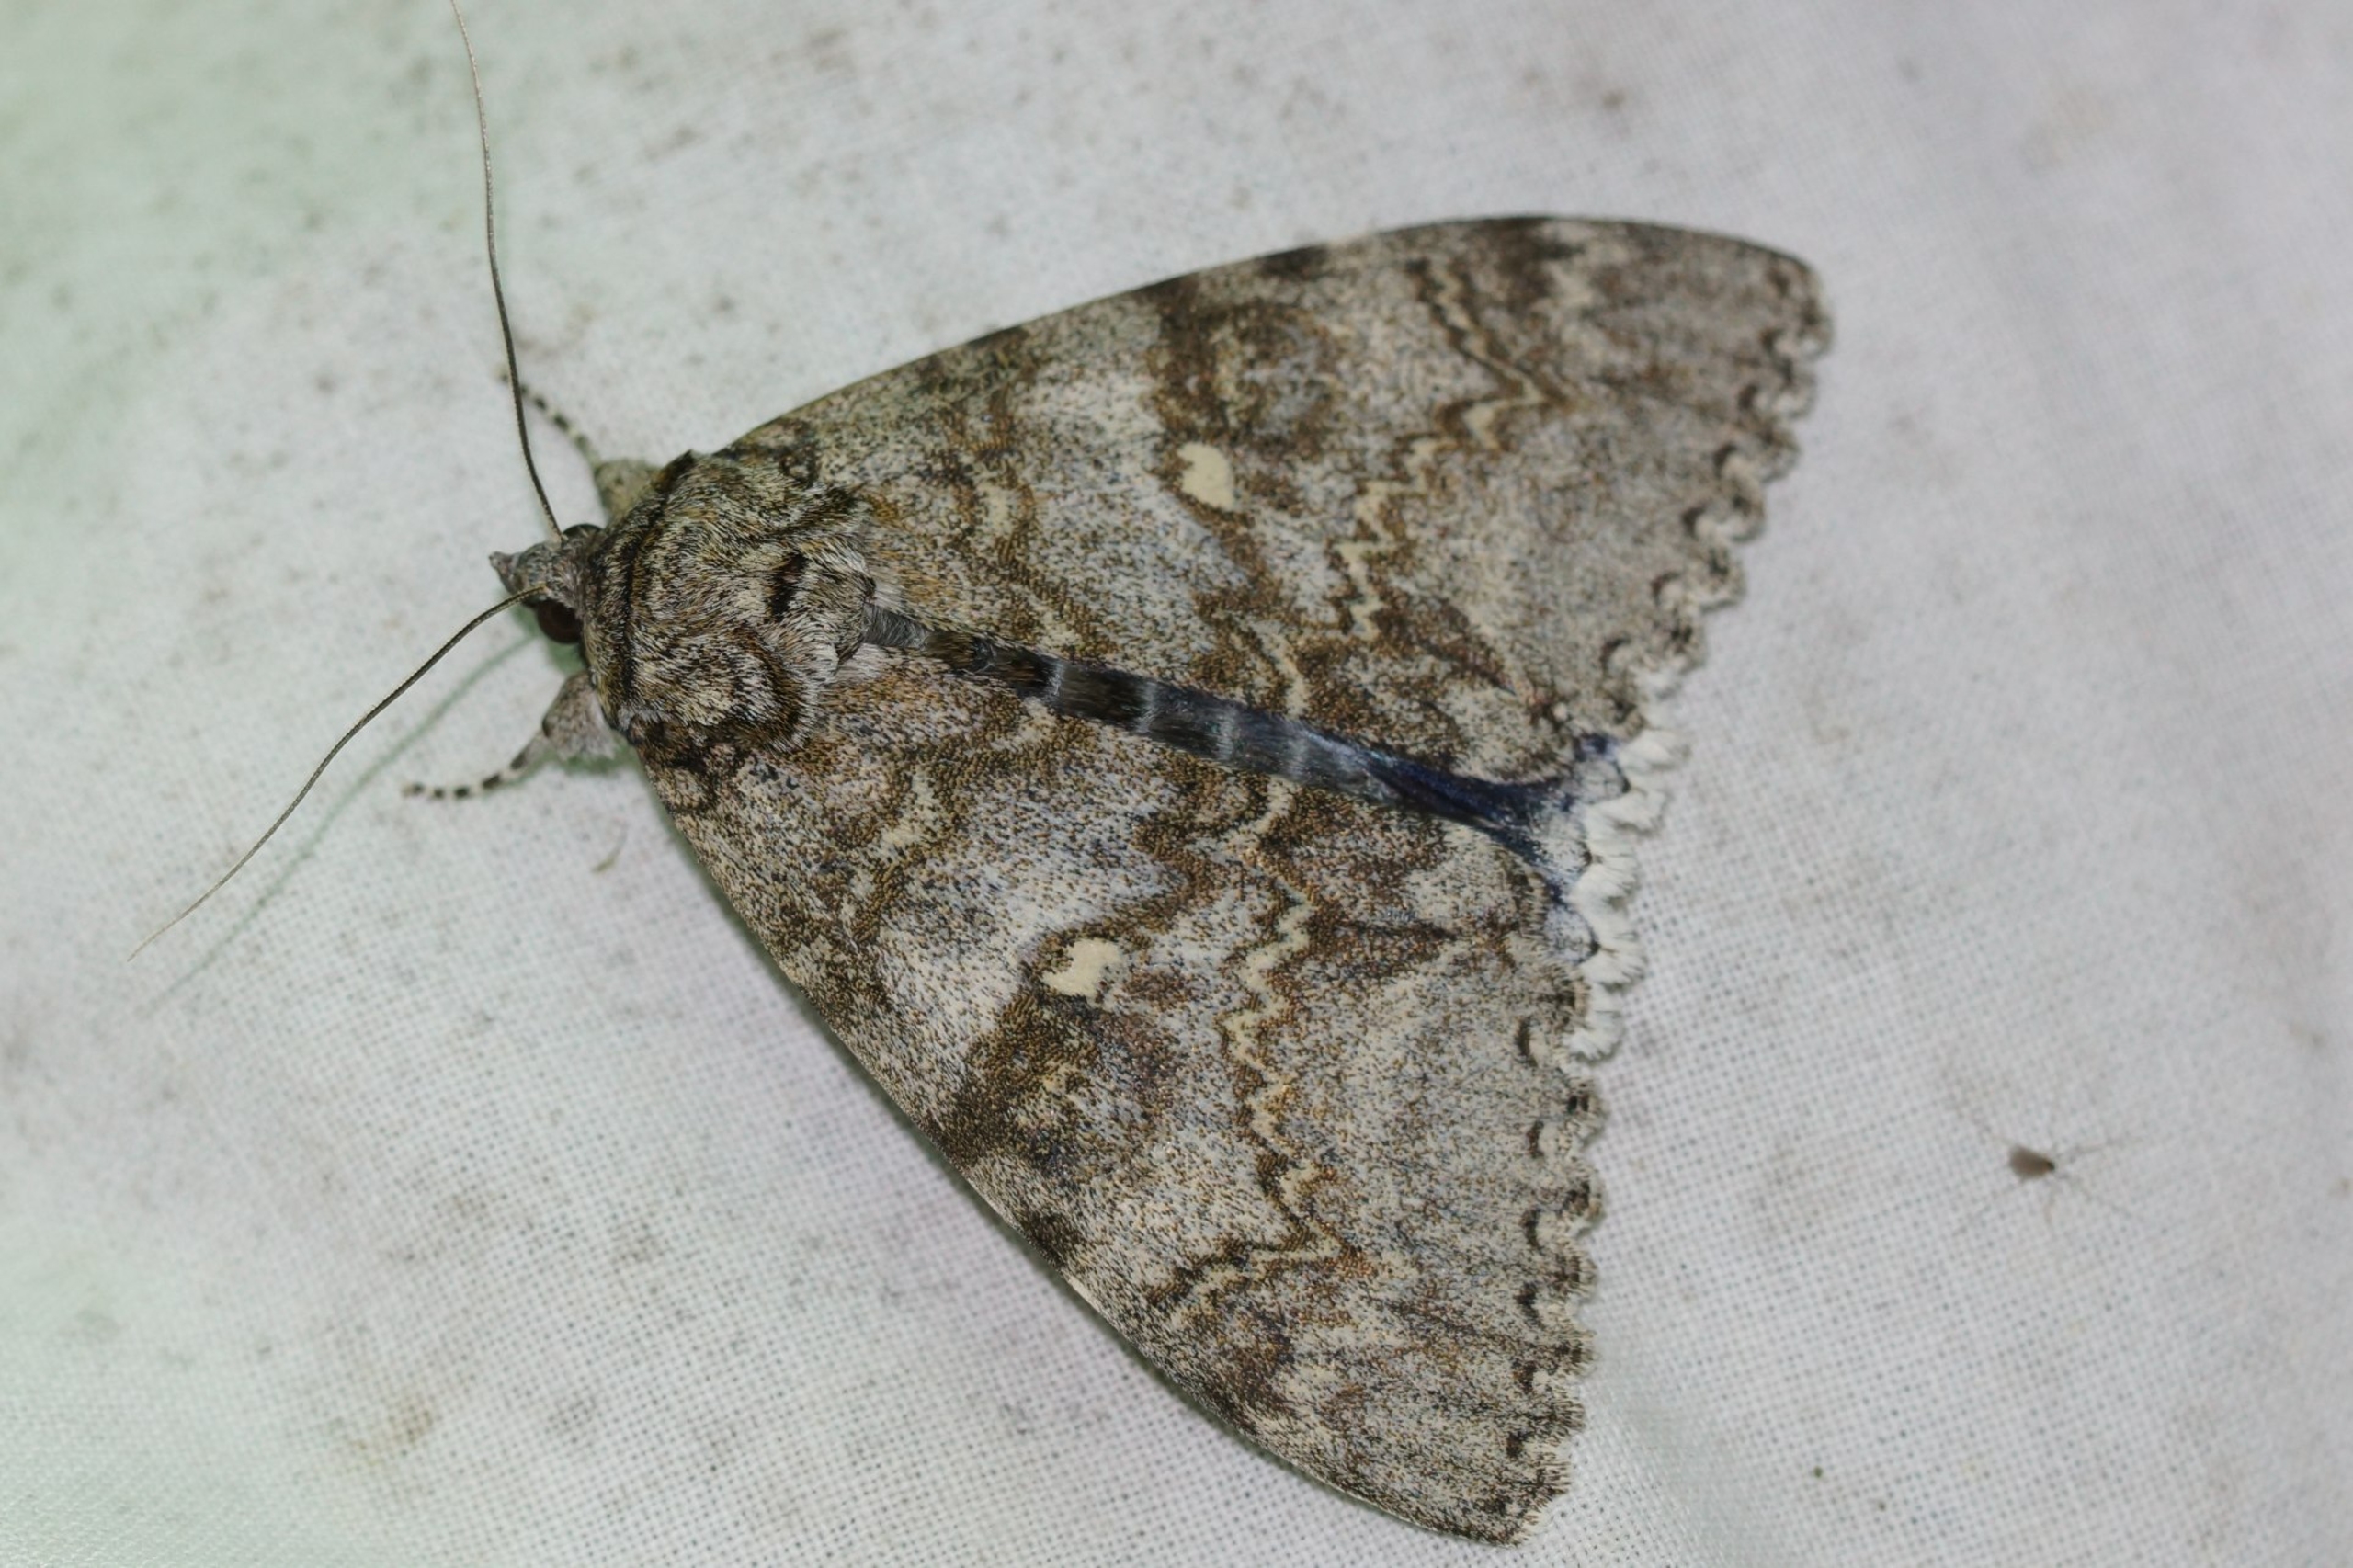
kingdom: Animalia
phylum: Arthropoda
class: Insecta
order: Lepidoptera
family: Erebidae
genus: Catocala
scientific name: Catocala fraxini
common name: Blåt ordensbånd
